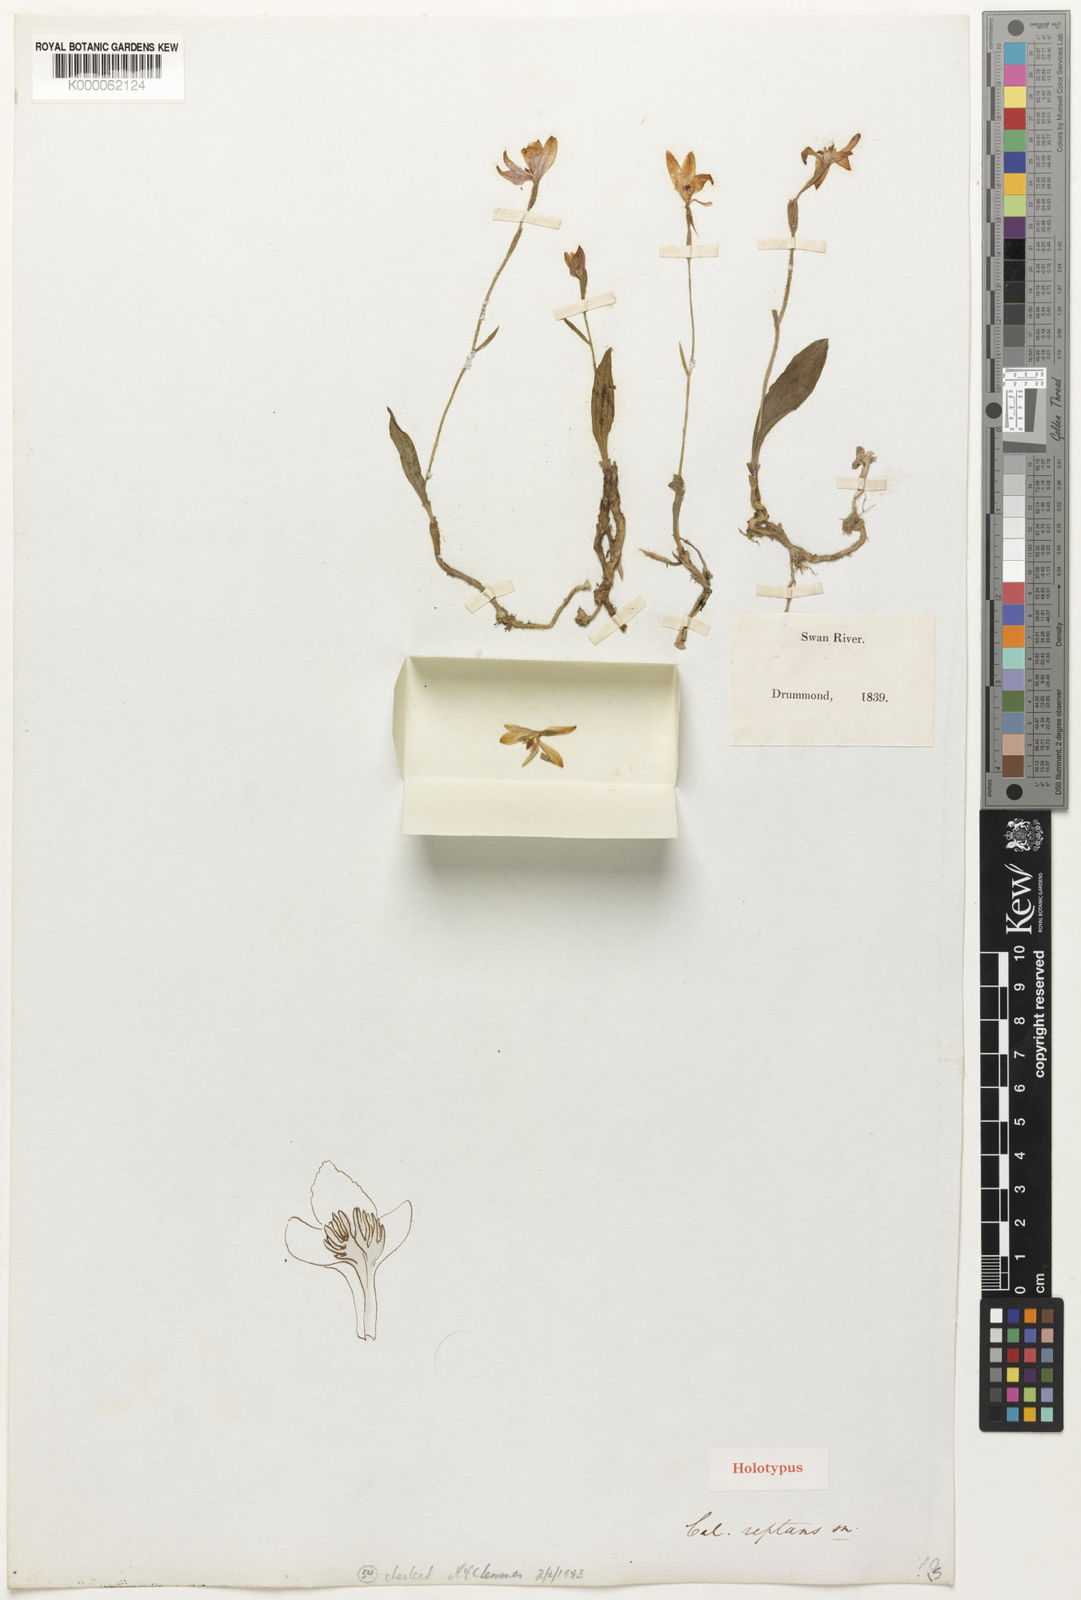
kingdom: Plantae
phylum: Tracheophyta
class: Liliopsida
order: Asparagales
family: Orchidaceae
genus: Caladenia
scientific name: Caladenia reptans
